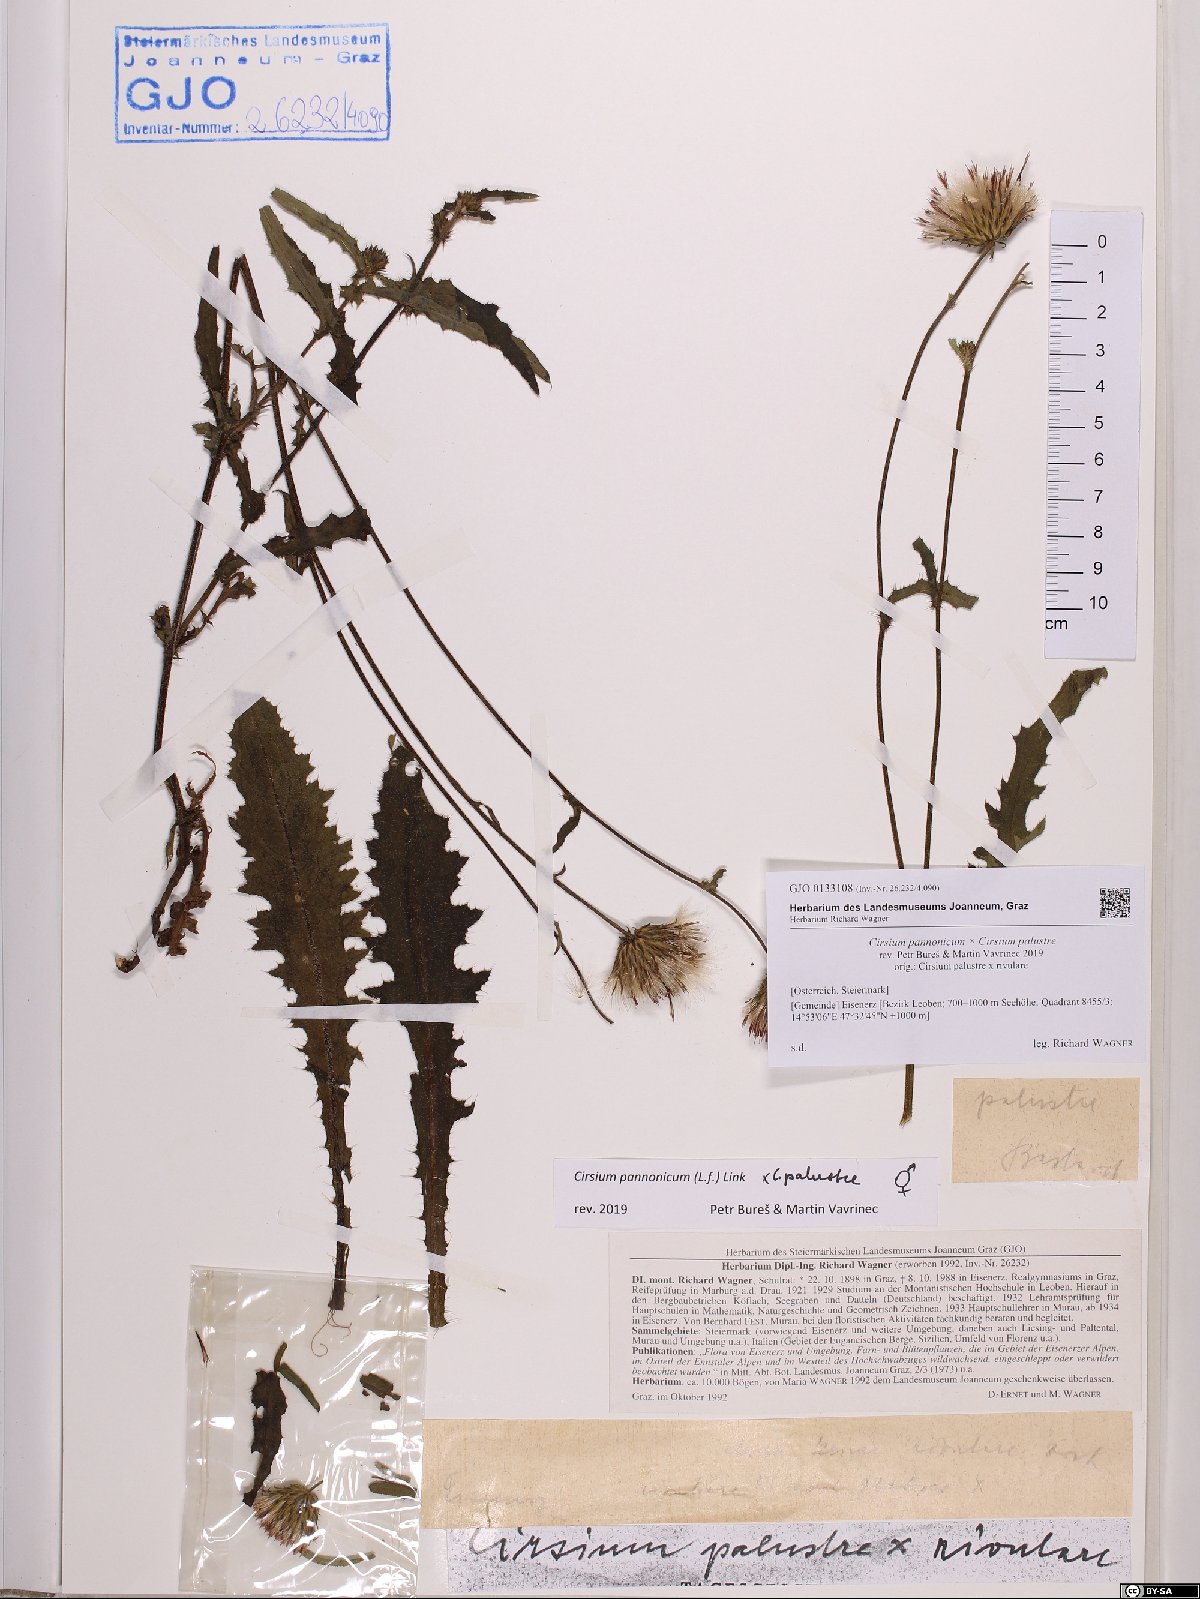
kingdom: Plantae
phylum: Tracheophyta
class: Magnoliopsida
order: Asterales
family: Asteraceae
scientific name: Asteraceae
